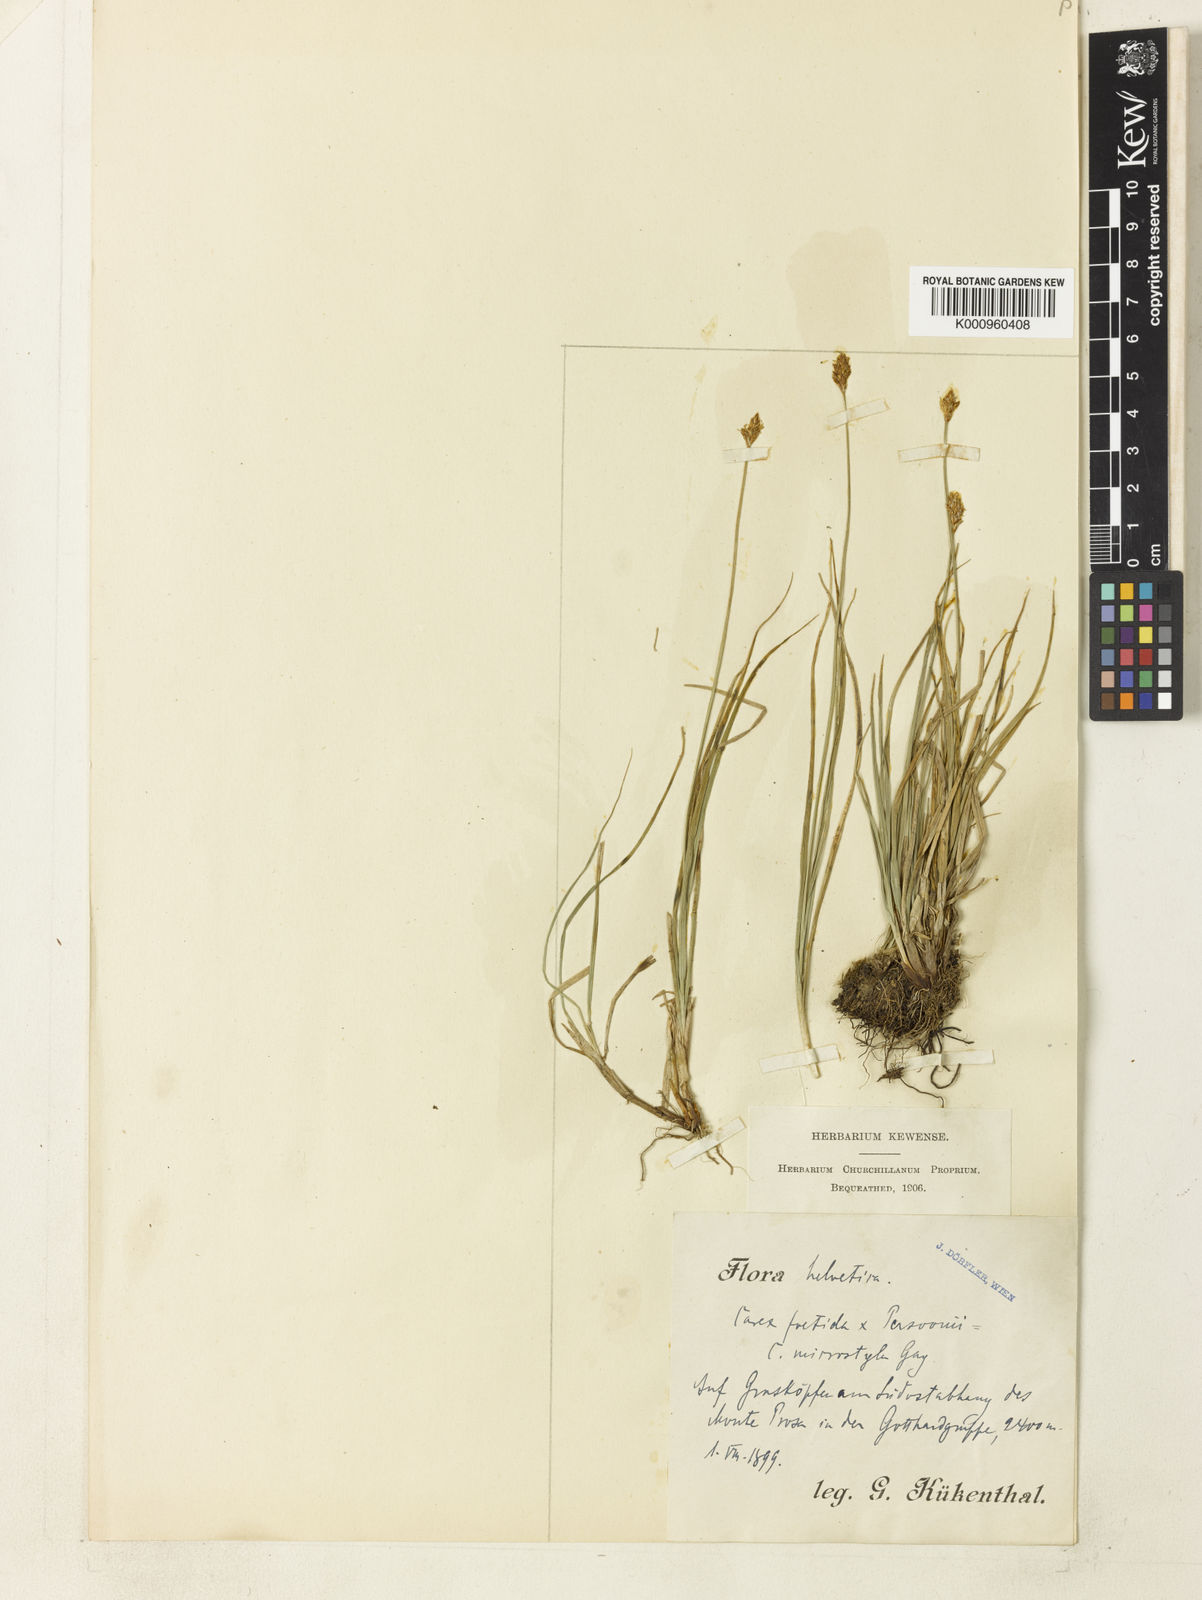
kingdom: Plantae
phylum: Tracheophyta
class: Liliopsida
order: Poales
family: Cyperaceae
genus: Carex
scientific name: Carex foetida
